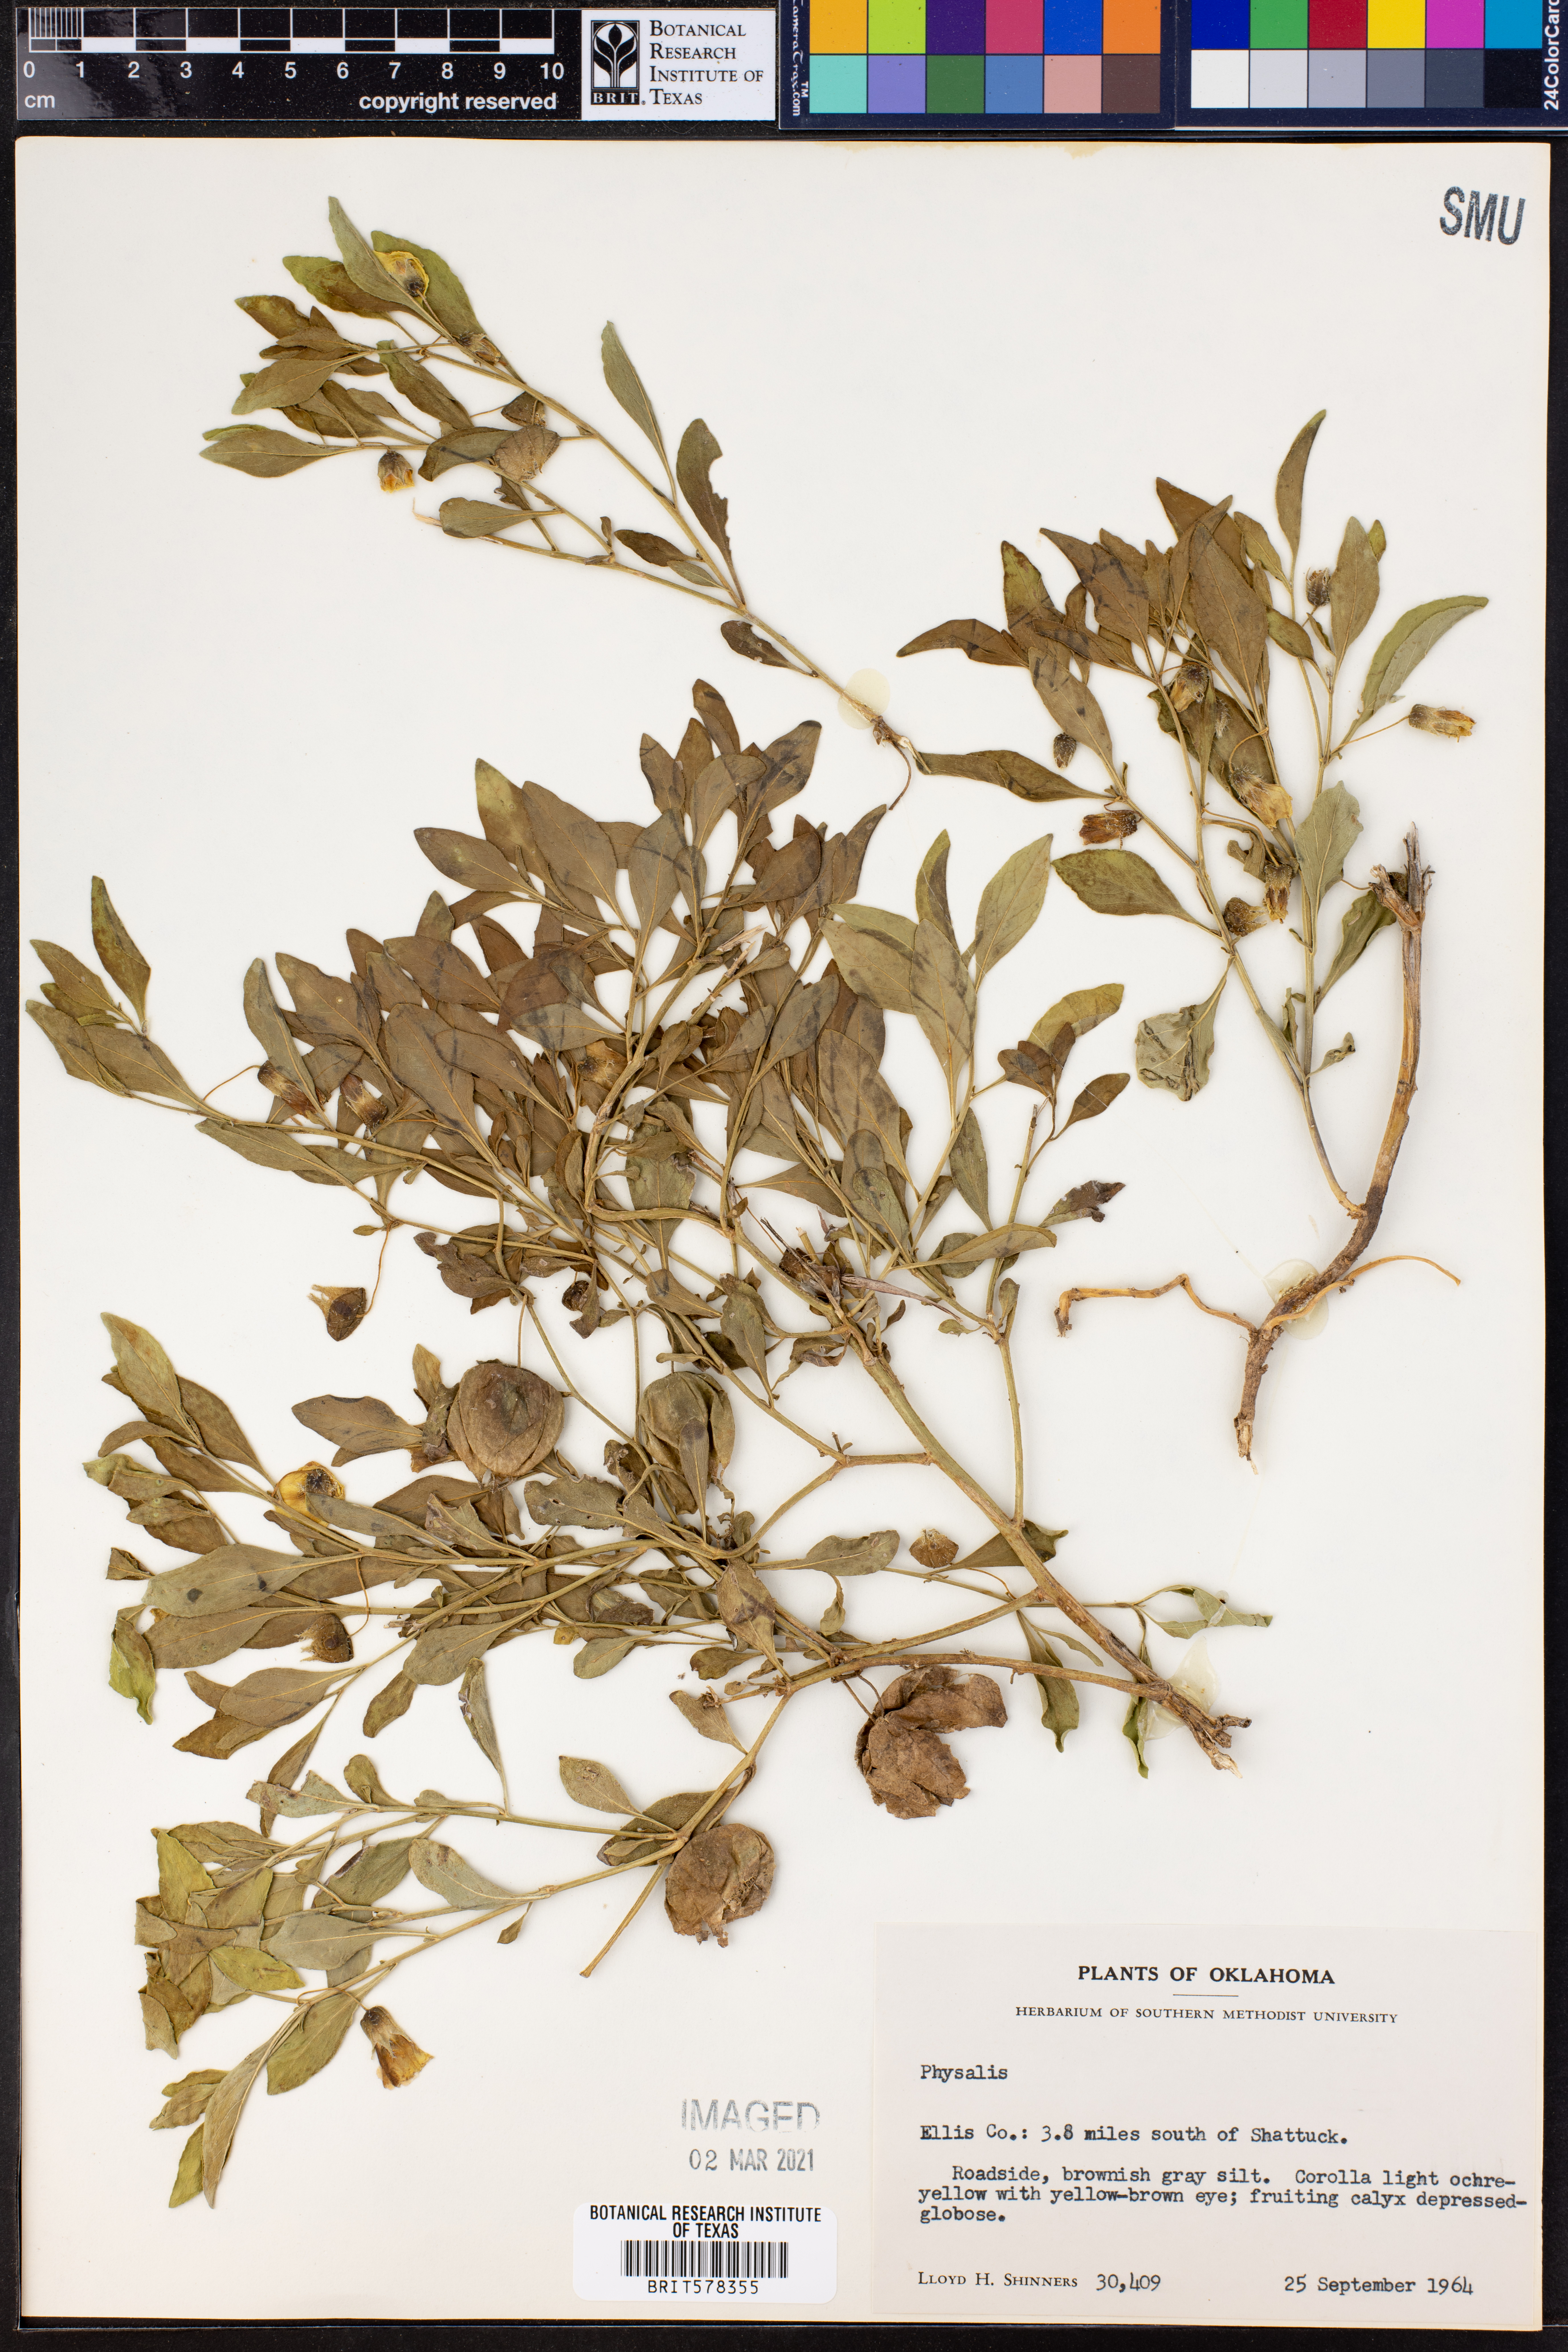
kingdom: Plantae
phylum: Tracheophyta
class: Magnoliopsida
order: Solanales
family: Solanaceae
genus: Physalis
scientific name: Physalis
